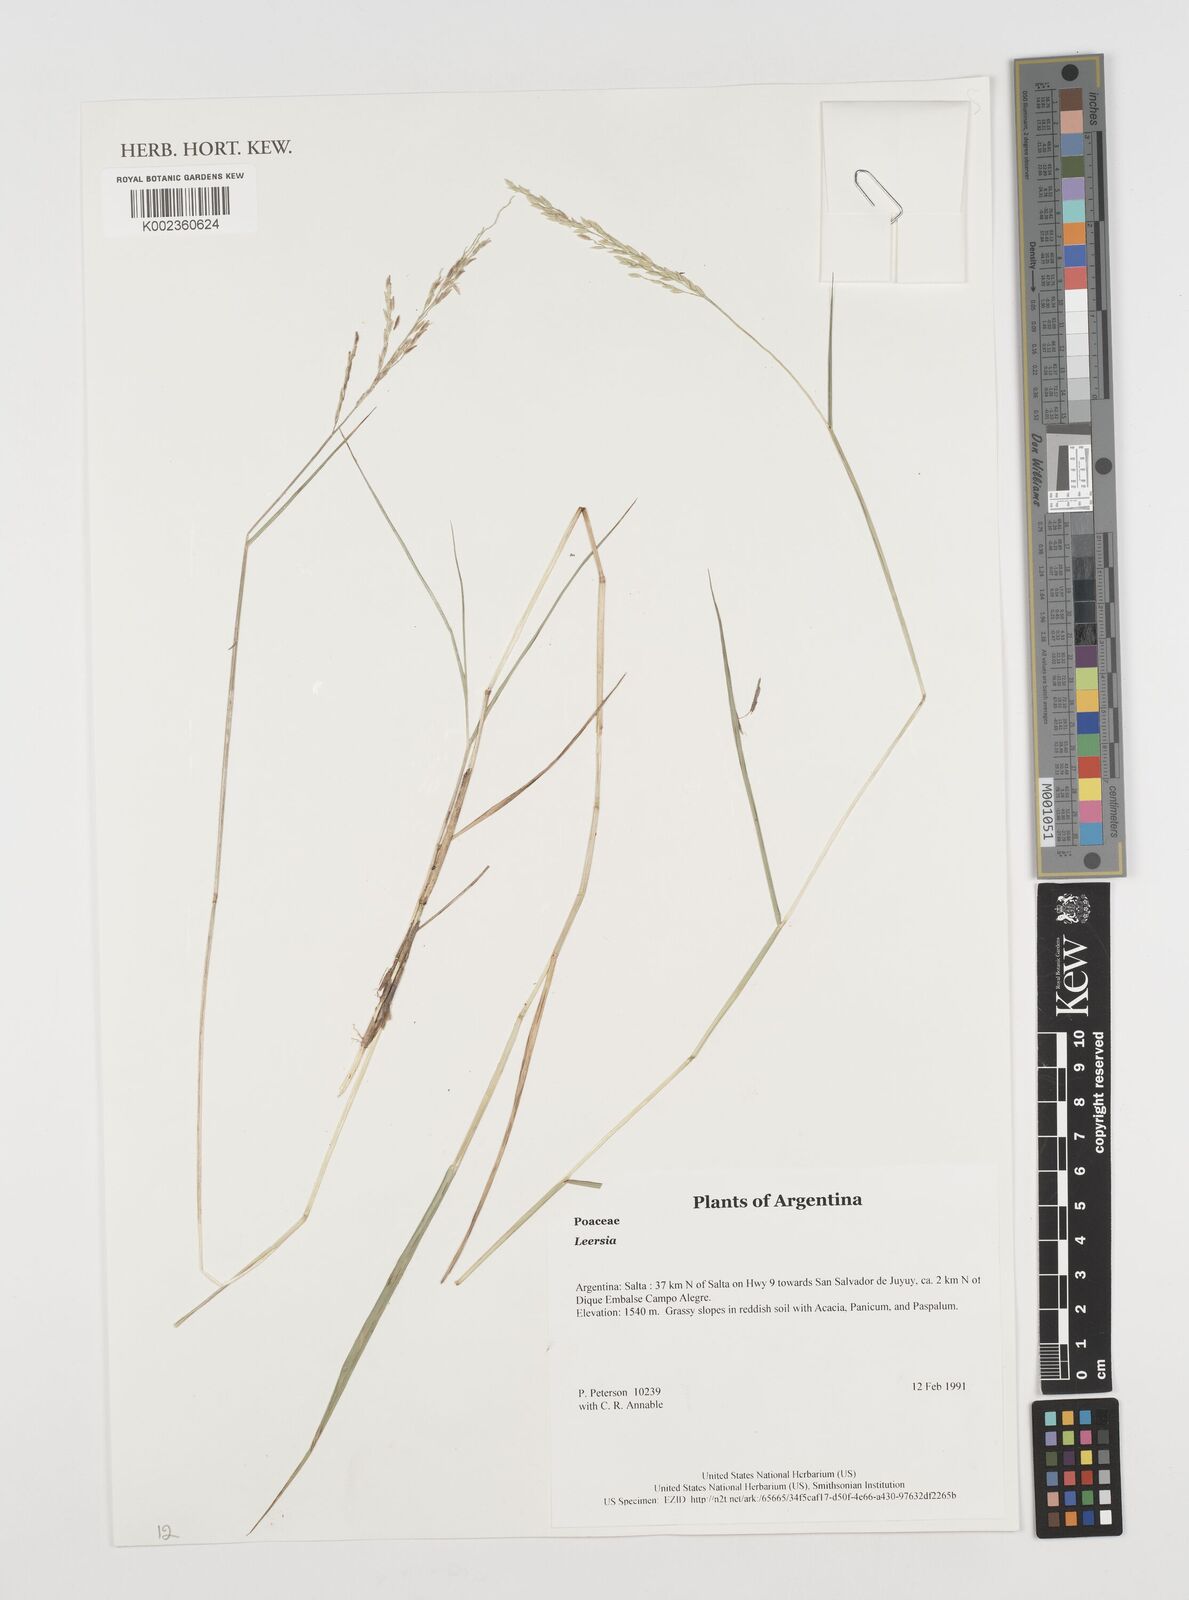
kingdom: Plantae
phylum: Tracheophyta
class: Liliopsida
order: Poales
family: Poaceae
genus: Leersia
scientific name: Leersia
